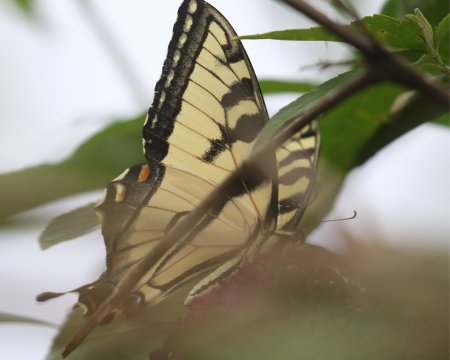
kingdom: Animalia
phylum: Arthropoda
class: Insecta
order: Lepidoptera
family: Papilionidae
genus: Pterourus
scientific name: Pterourus glaucus
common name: Eastern Tiger Swallowtail
